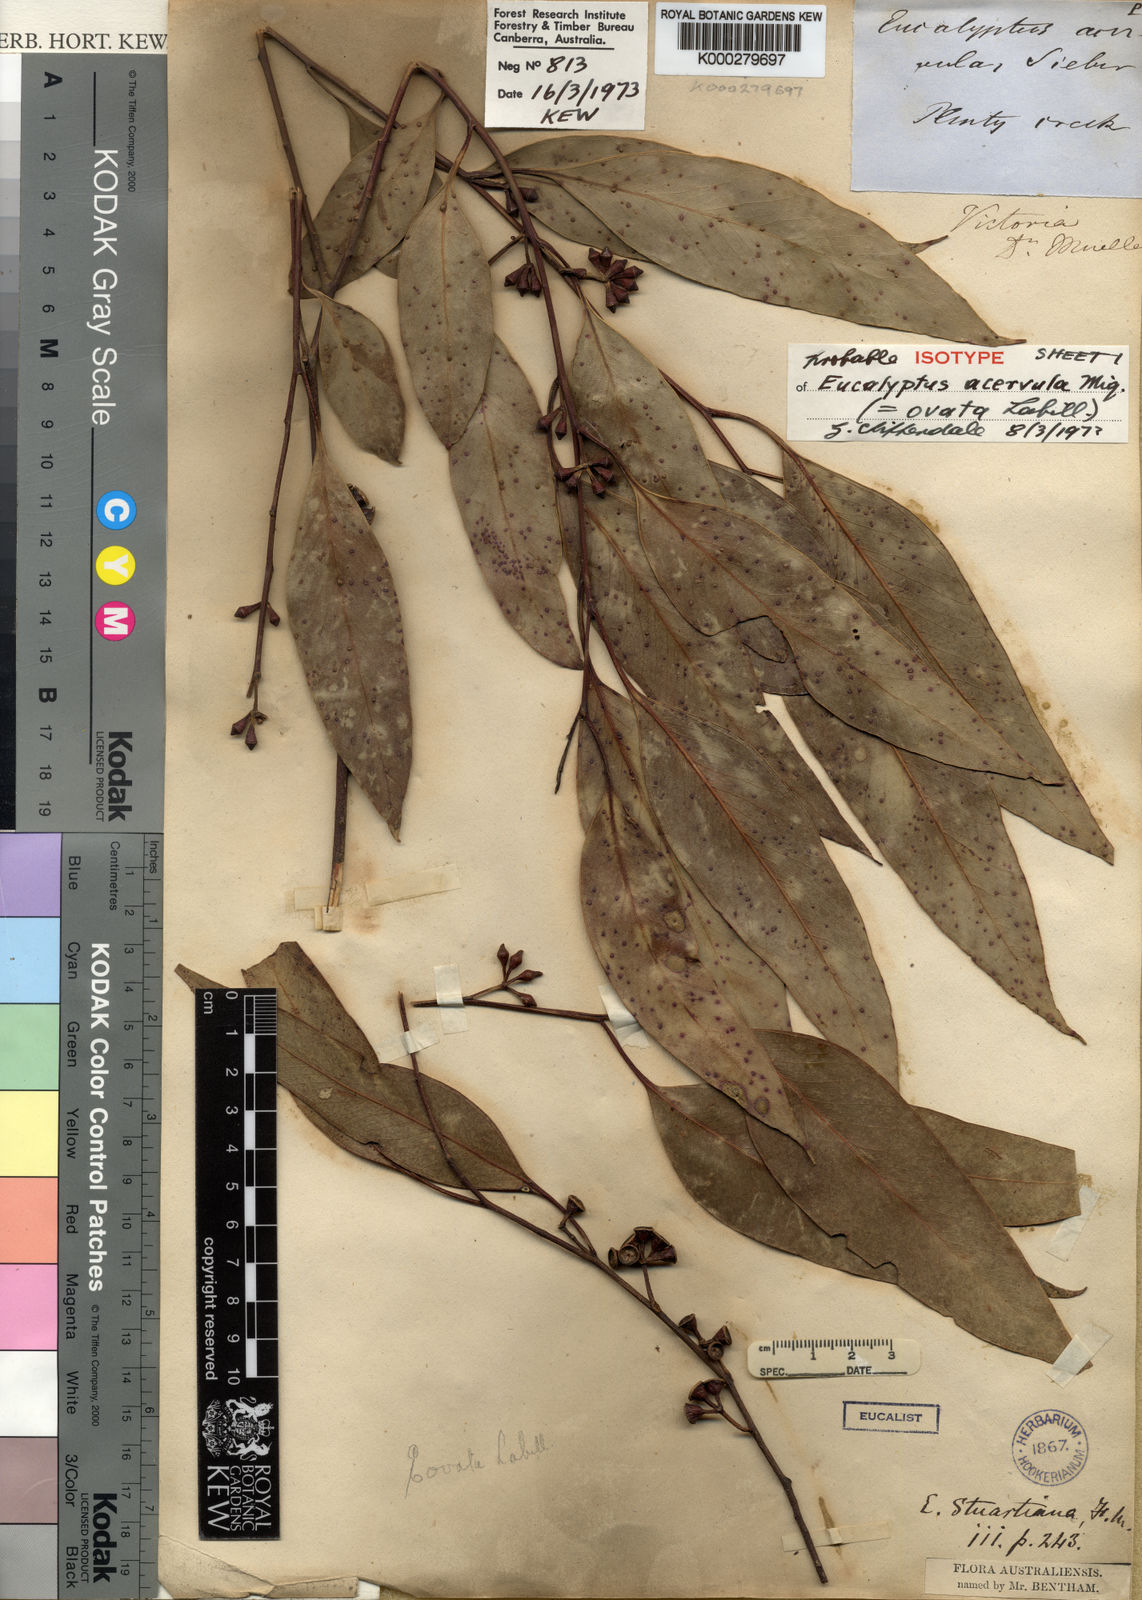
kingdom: Plantae
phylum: Tracheophyta
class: Magnoliopsida
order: Myrtales
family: Myrtaceae
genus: Eucalyptus
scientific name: Eucalyptus ovata
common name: Black-gum
